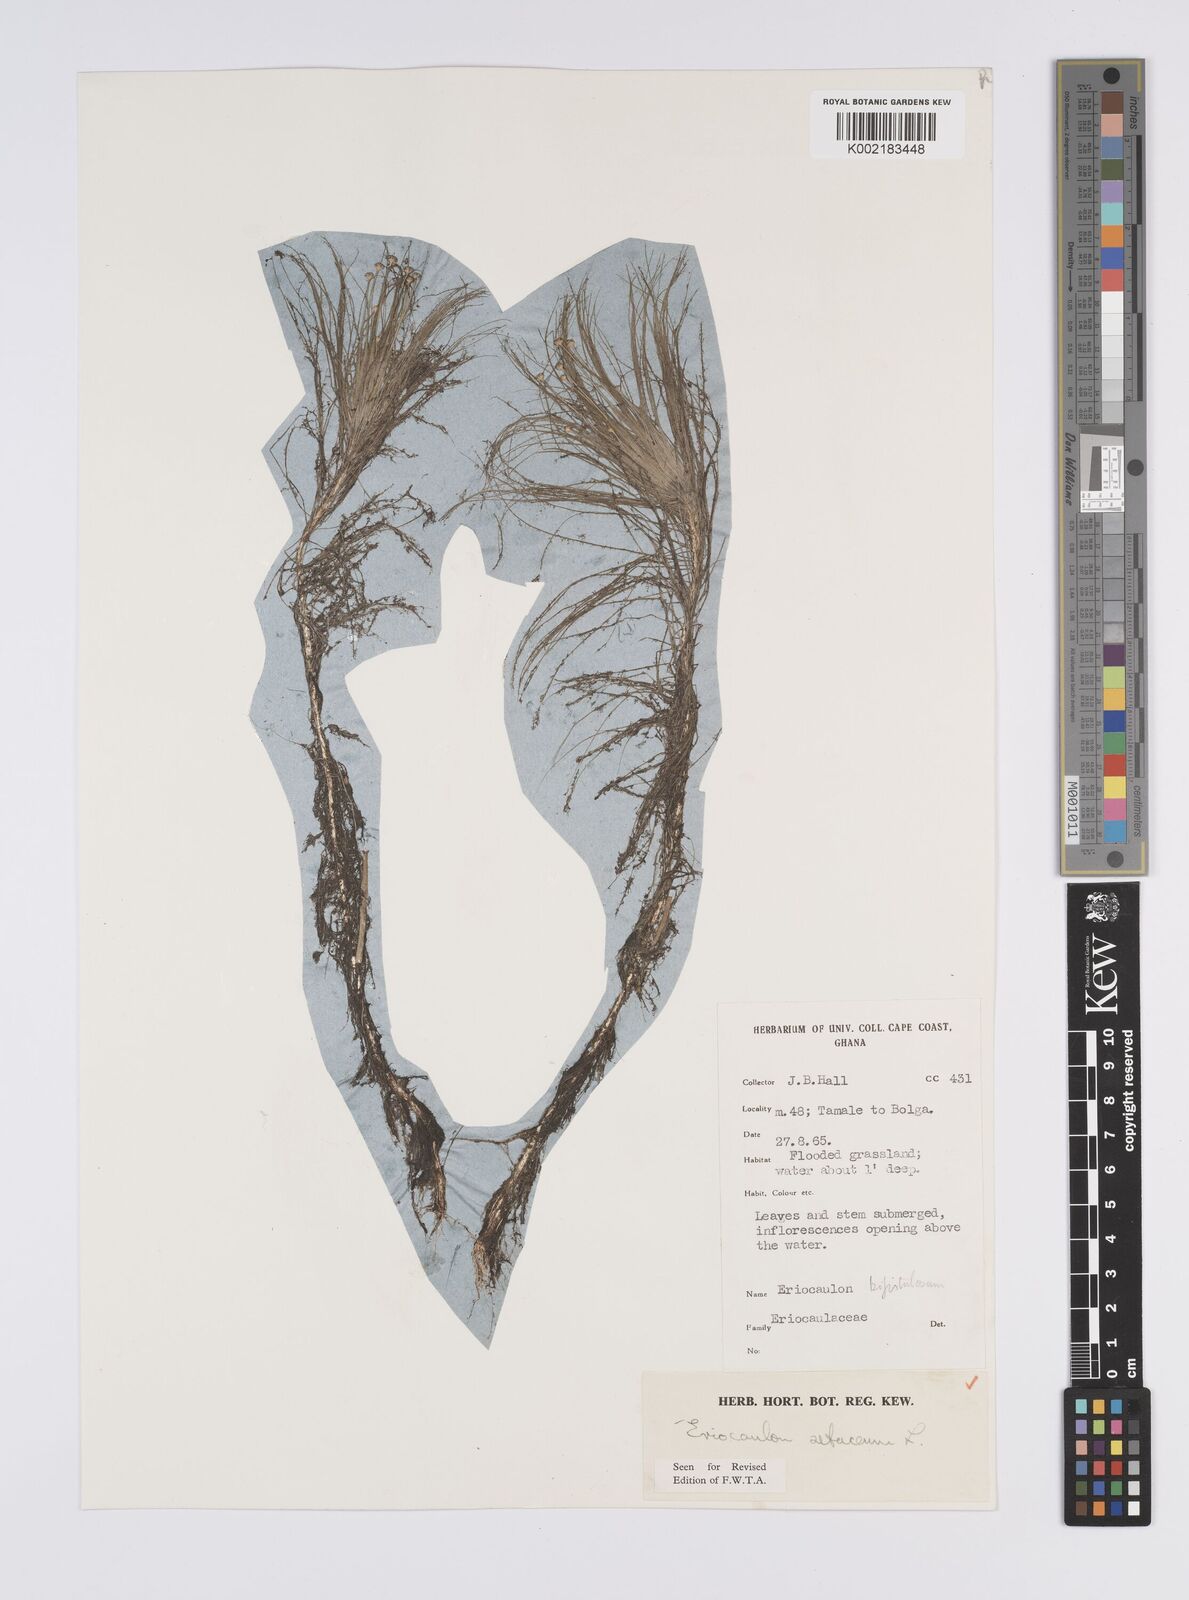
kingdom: Plantae
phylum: Tracheophyta
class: Liliopsida
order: Poales
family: Eriocaulaceae
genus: Eriocaulon
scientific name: Eriocaulon setaceum
